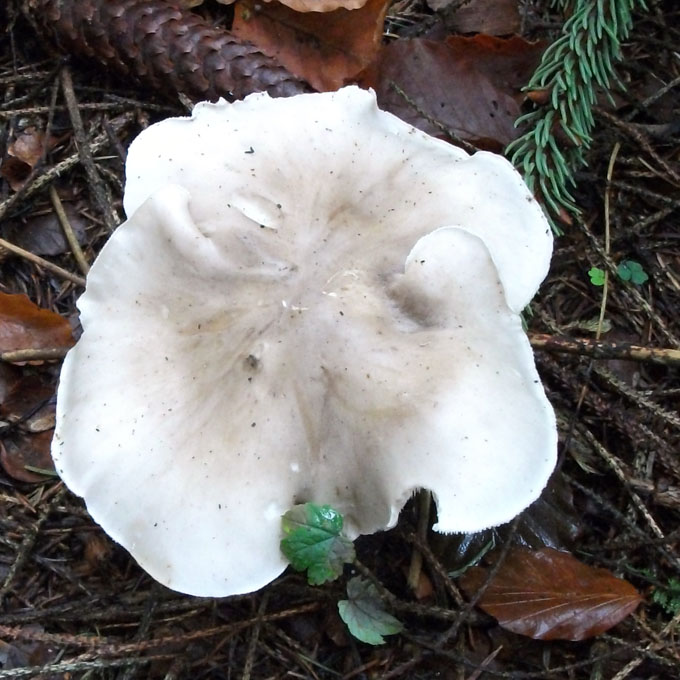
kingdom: Fungi
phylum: Basidiomycota
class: Agaricomycetes
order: Agaricales
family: Tricholomataceae
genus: Clitocybe
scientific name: Clitocybe nebularis
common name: tåge-tragthat
